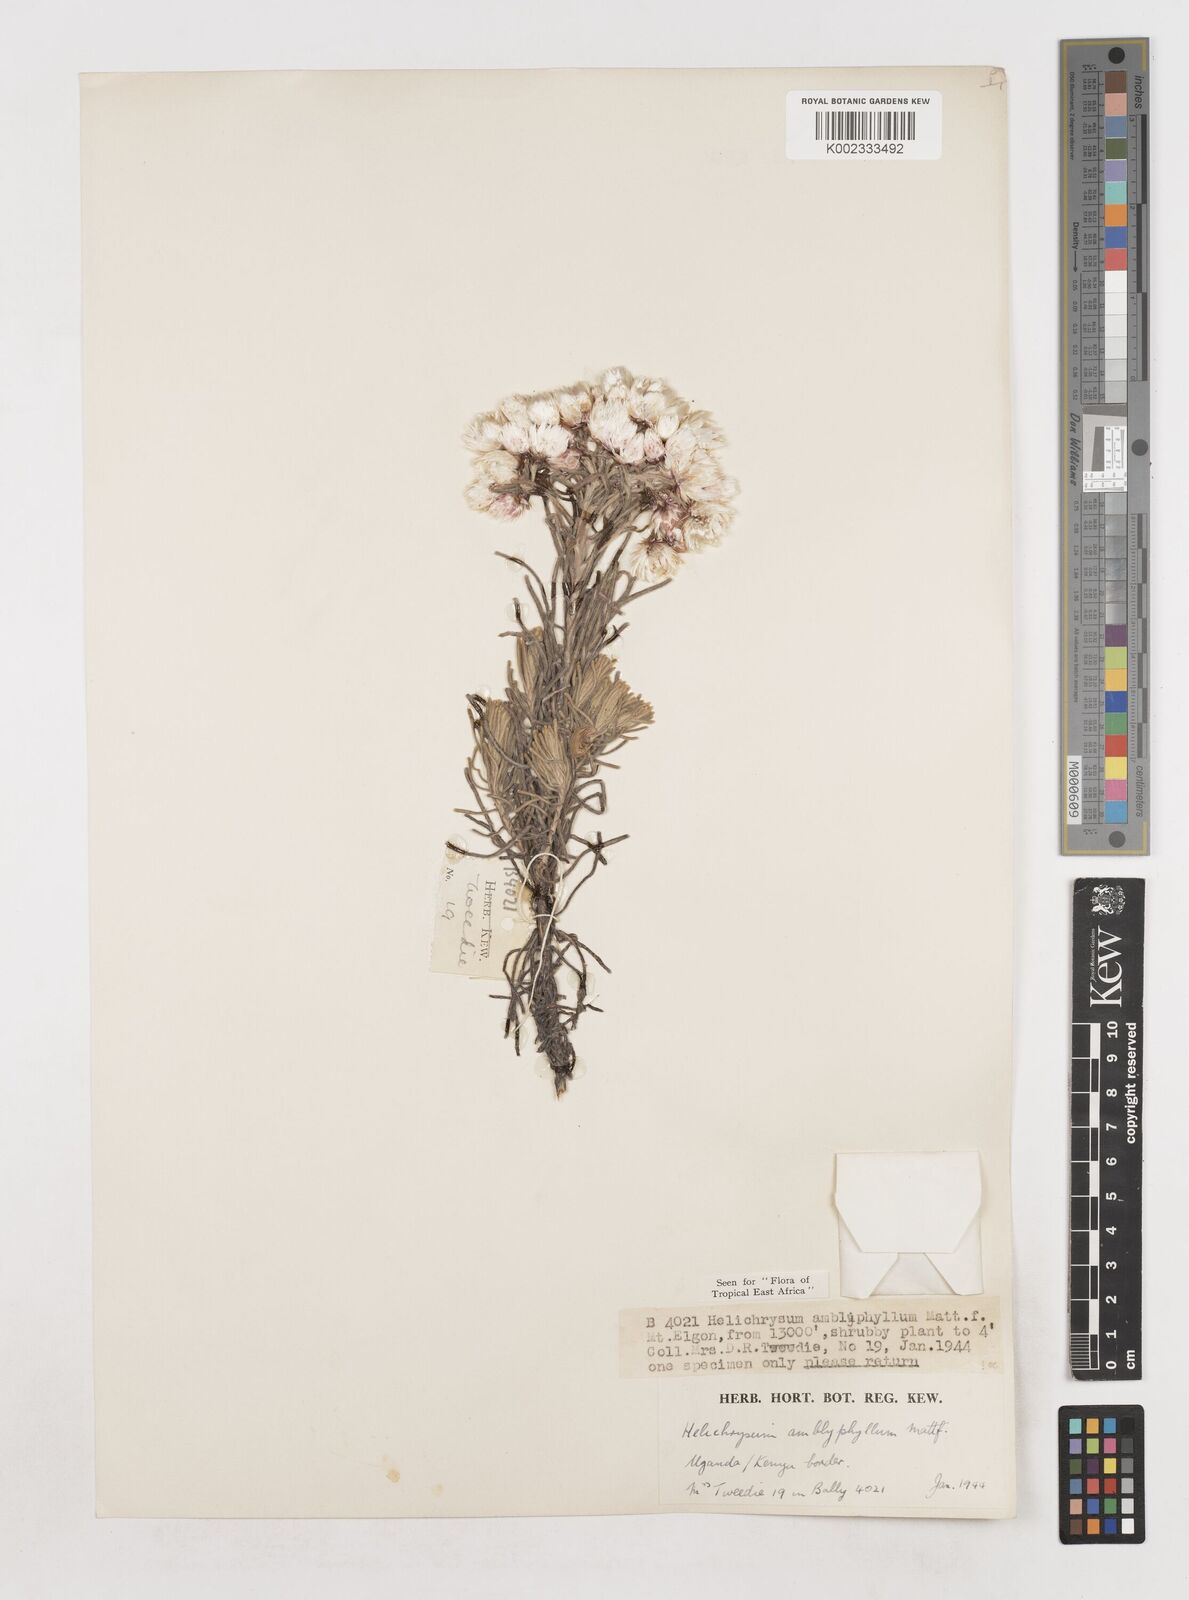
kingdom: Plantae
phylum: Tracheophyta
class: Magnoliopsida
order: Asterales
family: Asteraceae
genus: Helichrysum
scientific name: Helichrysum amblyphyllum
